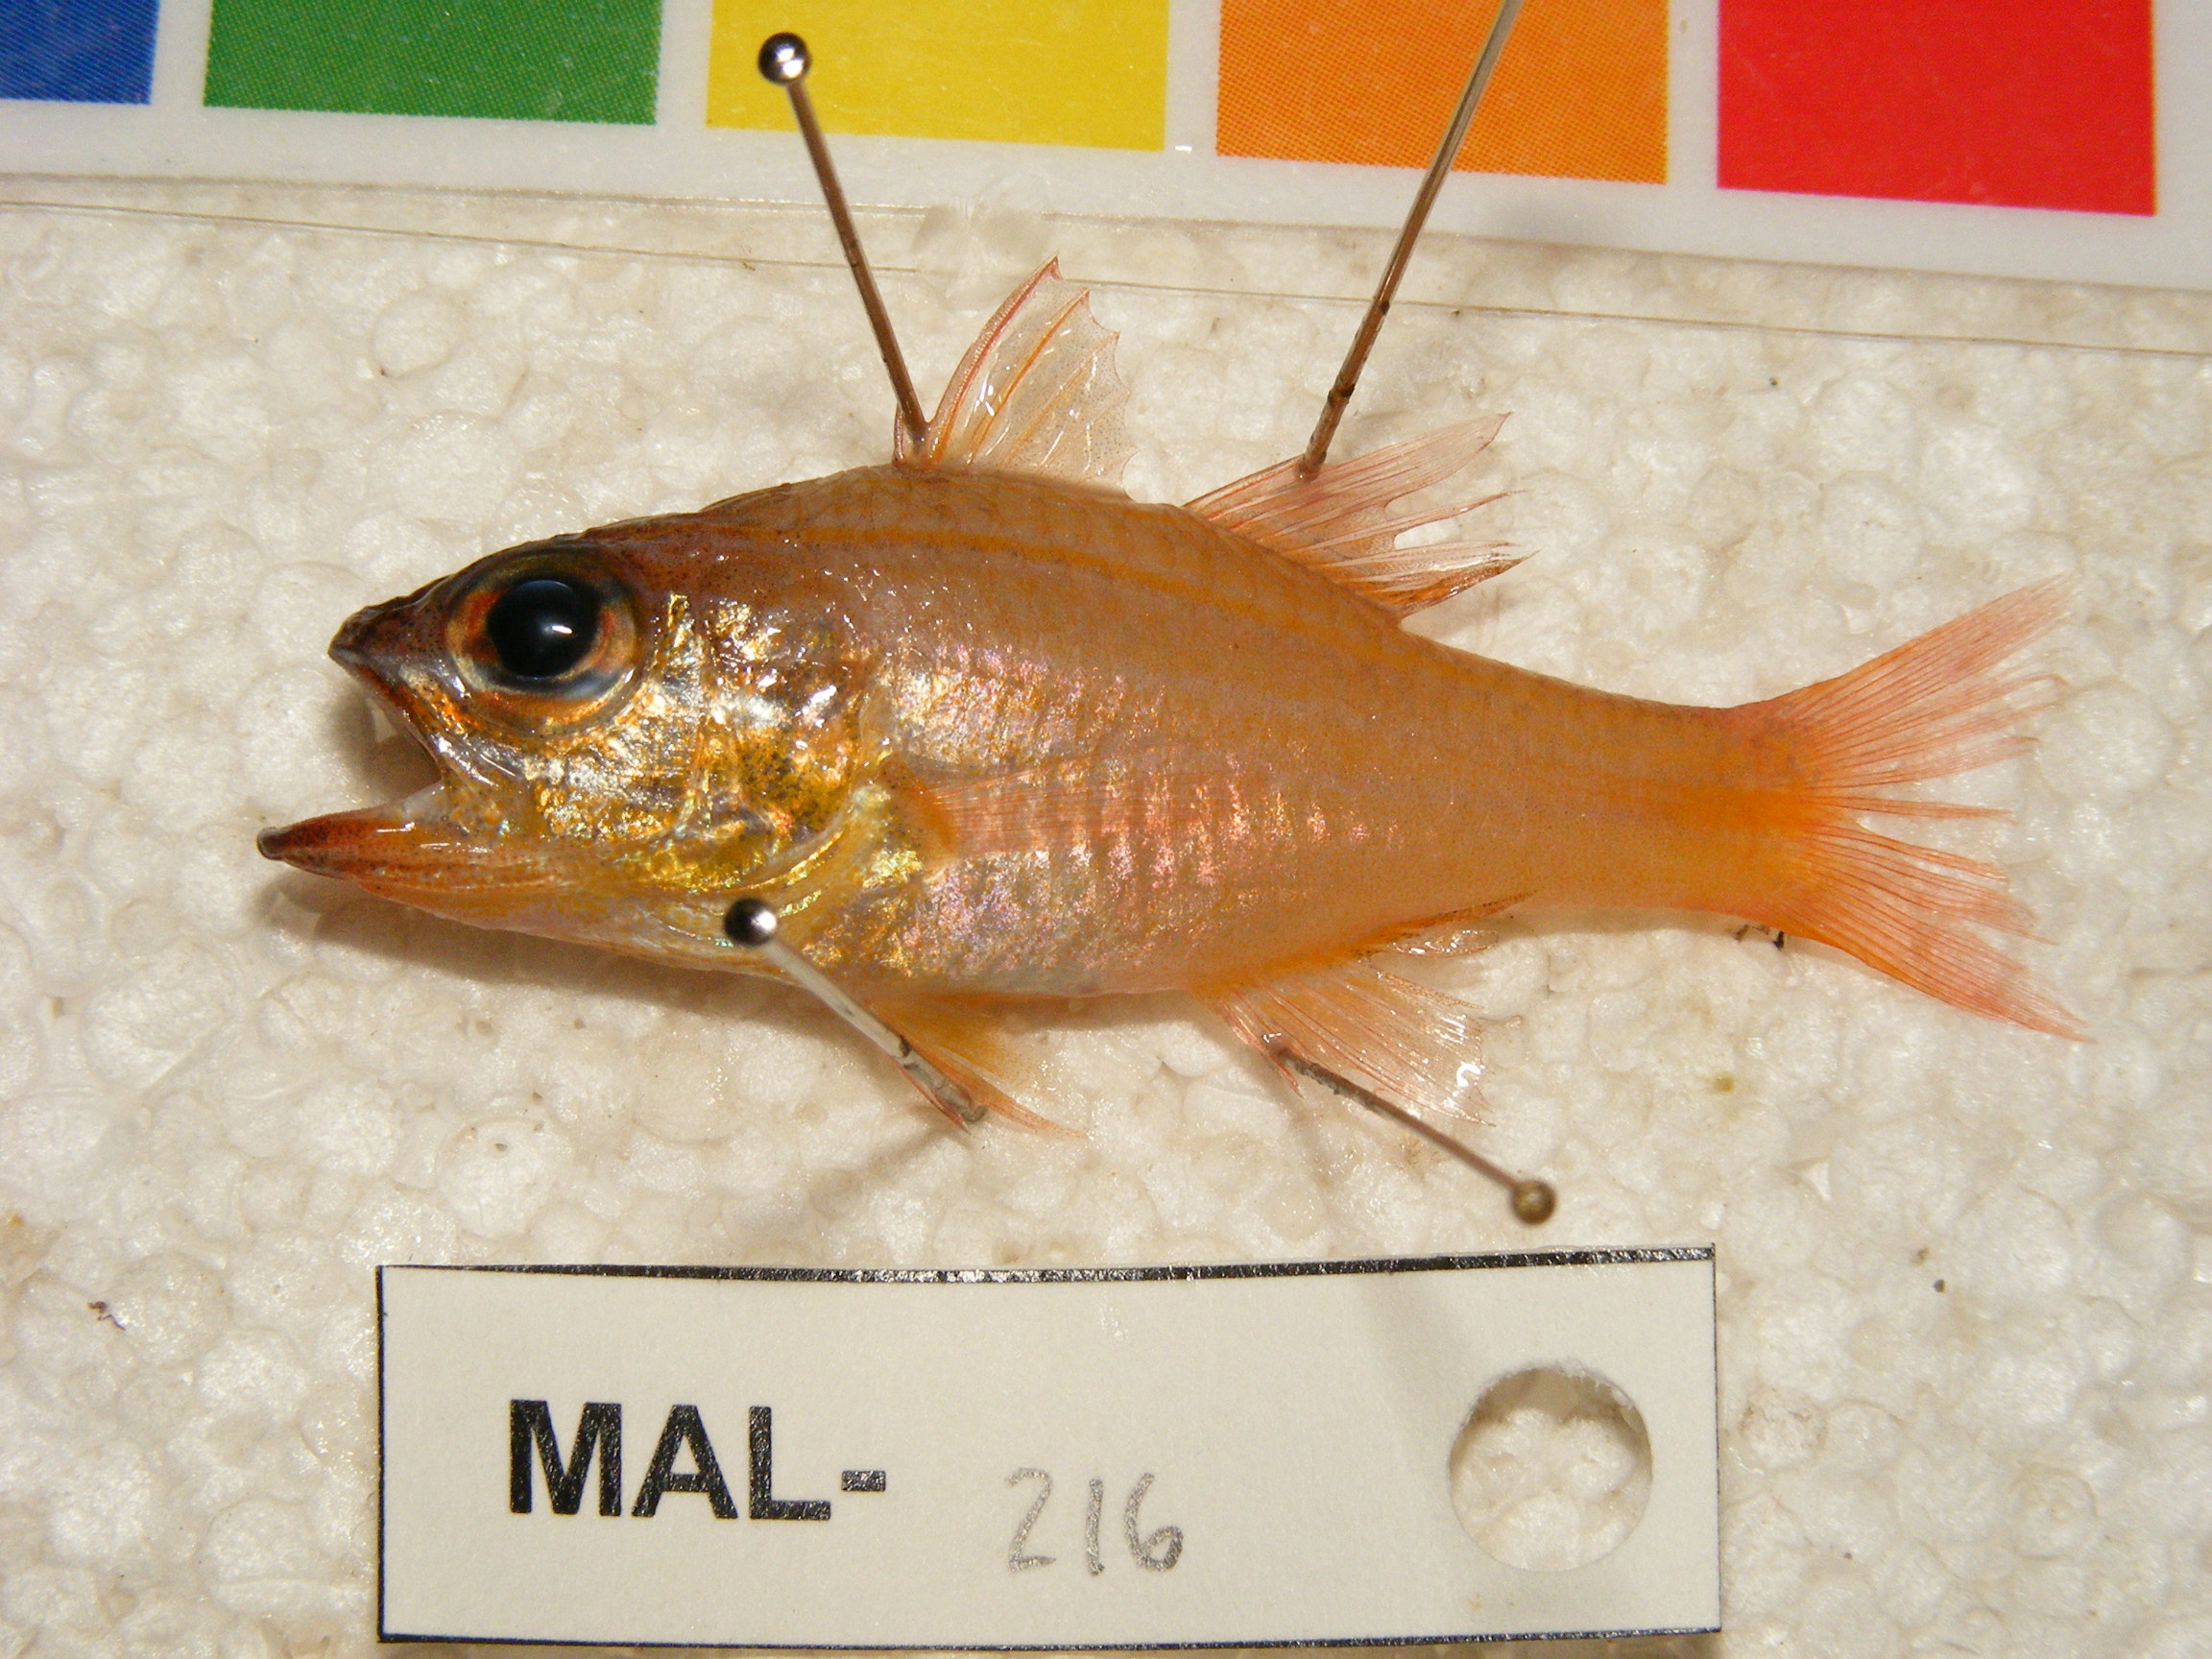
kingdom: Animalia
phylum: Chordata
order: Perciformes
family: Apogonidae
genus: Ostorhinchus
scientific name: Ostorhinchus
